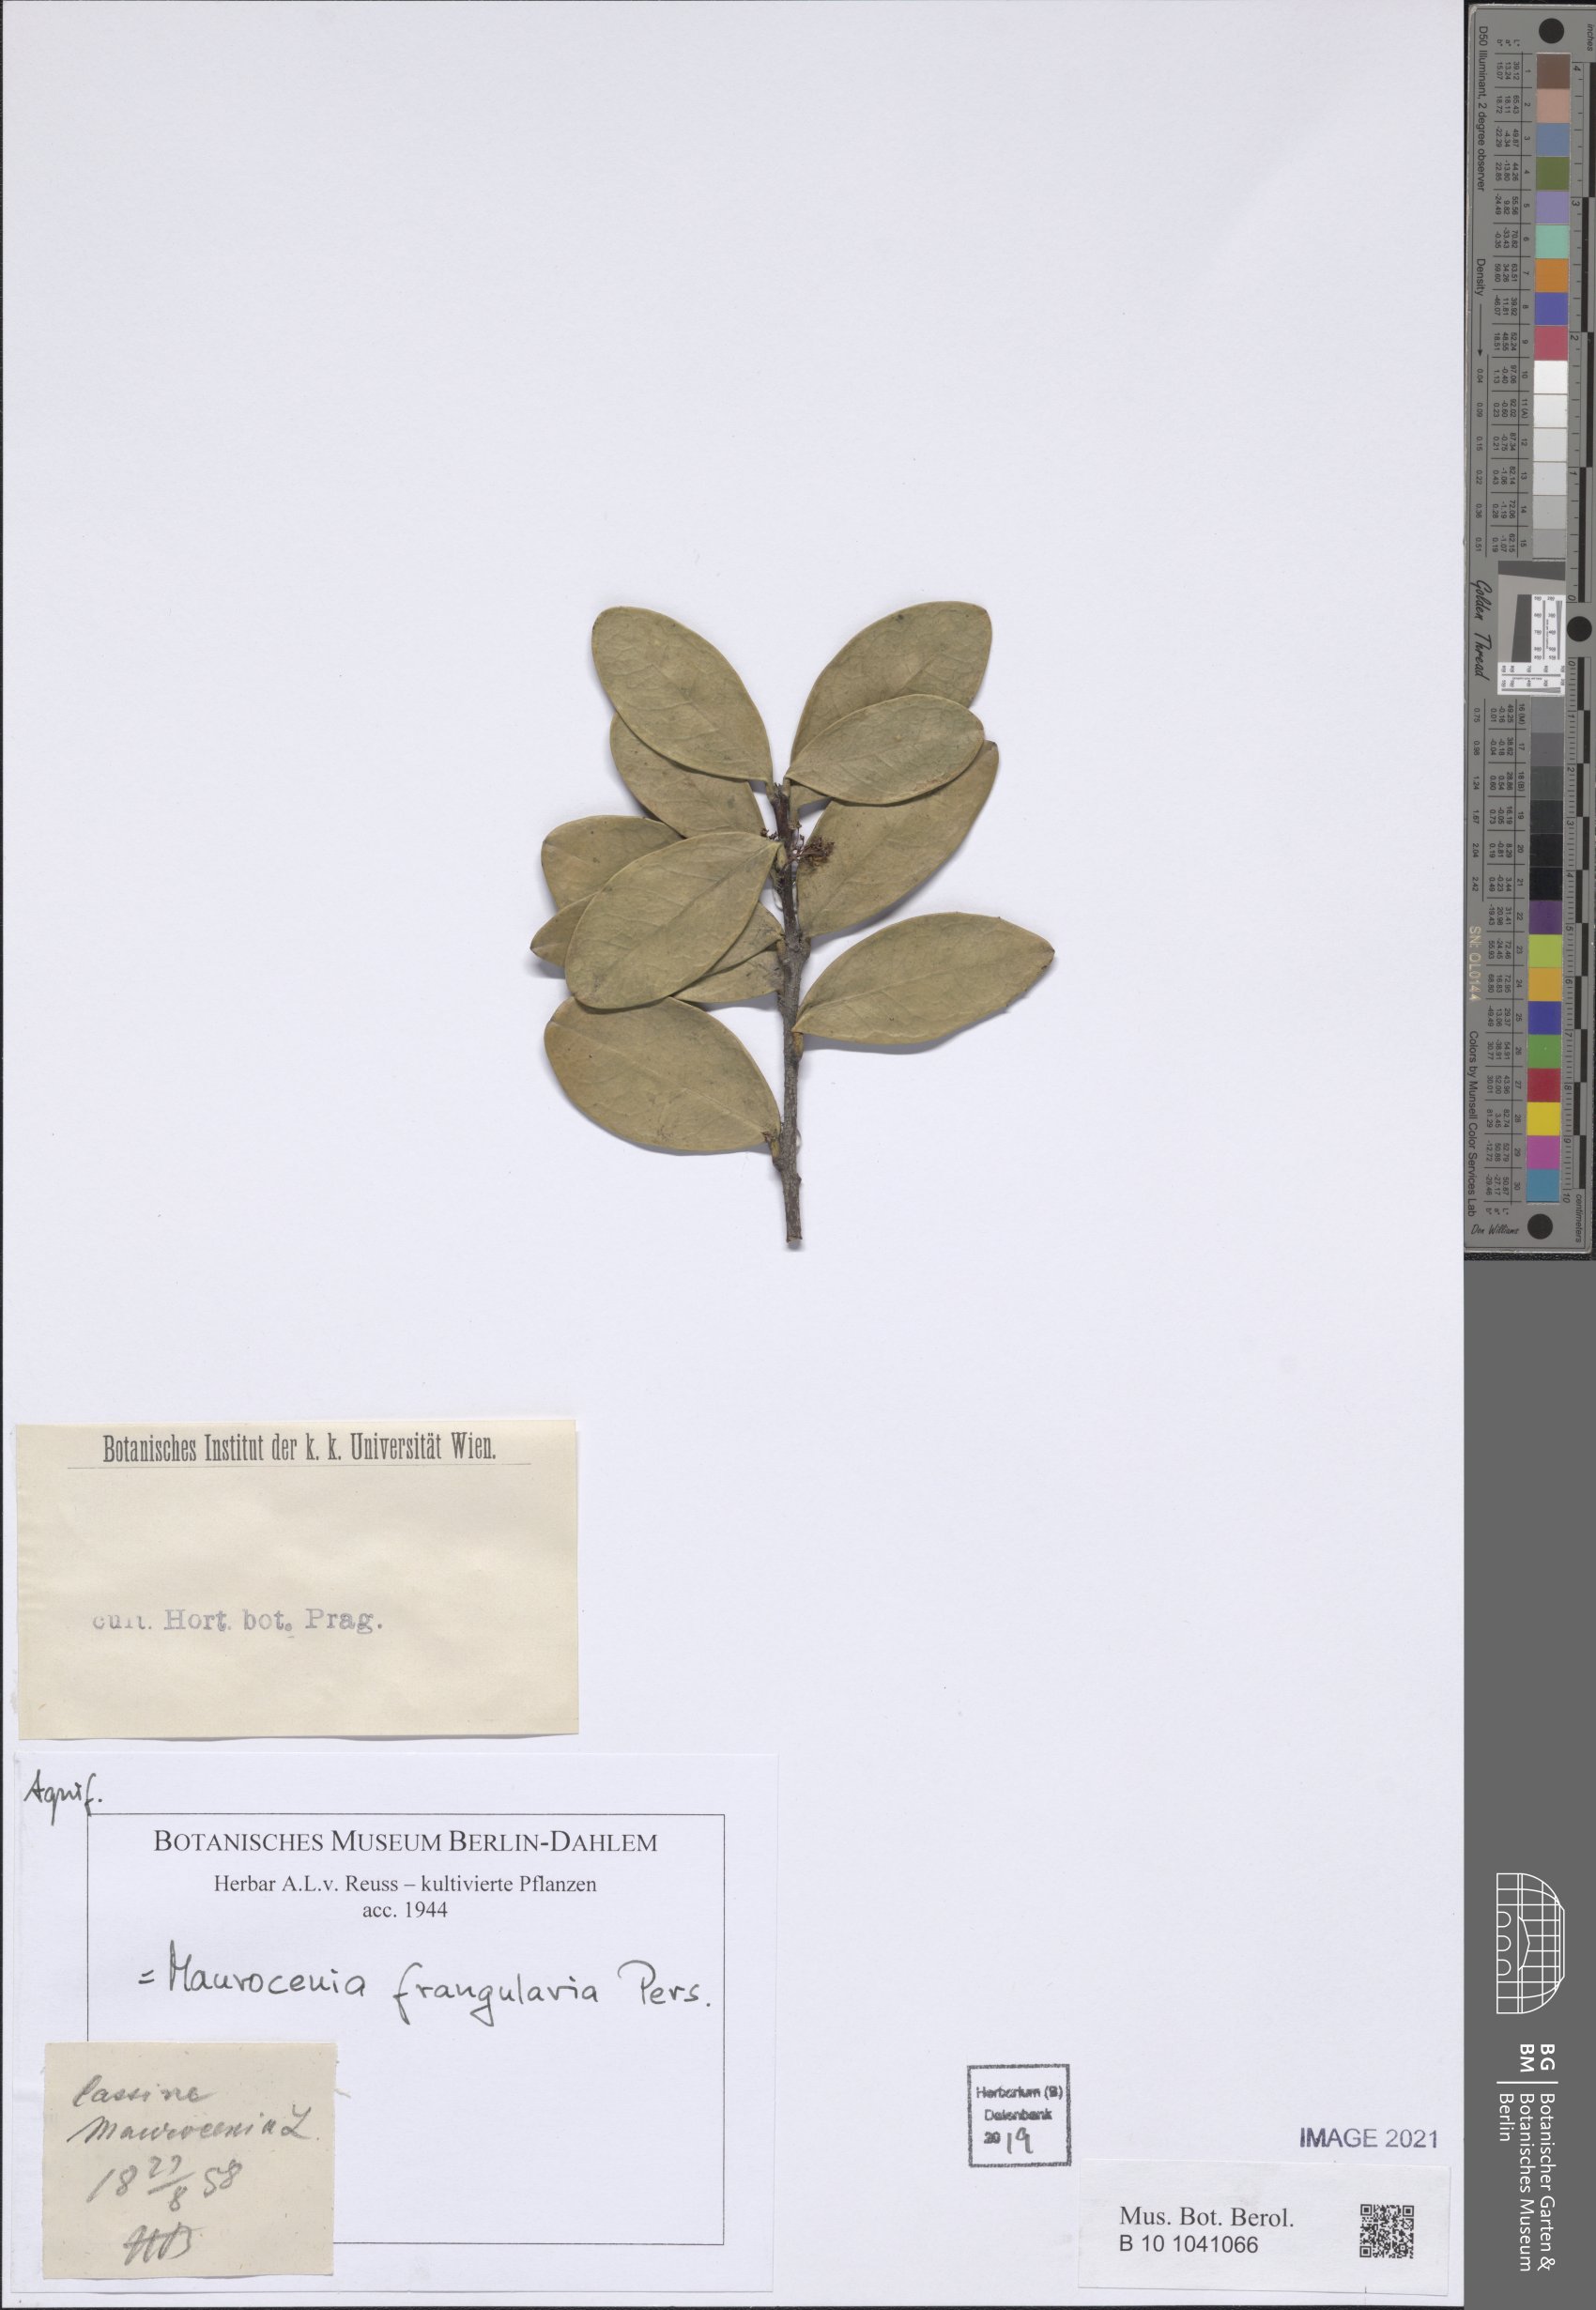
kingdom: Plantae
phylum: Tracheophyta
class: Magnoliopsida
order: Celastrales
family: Celastraceae
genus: Maurocenia
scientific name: Maurocenia frangula
